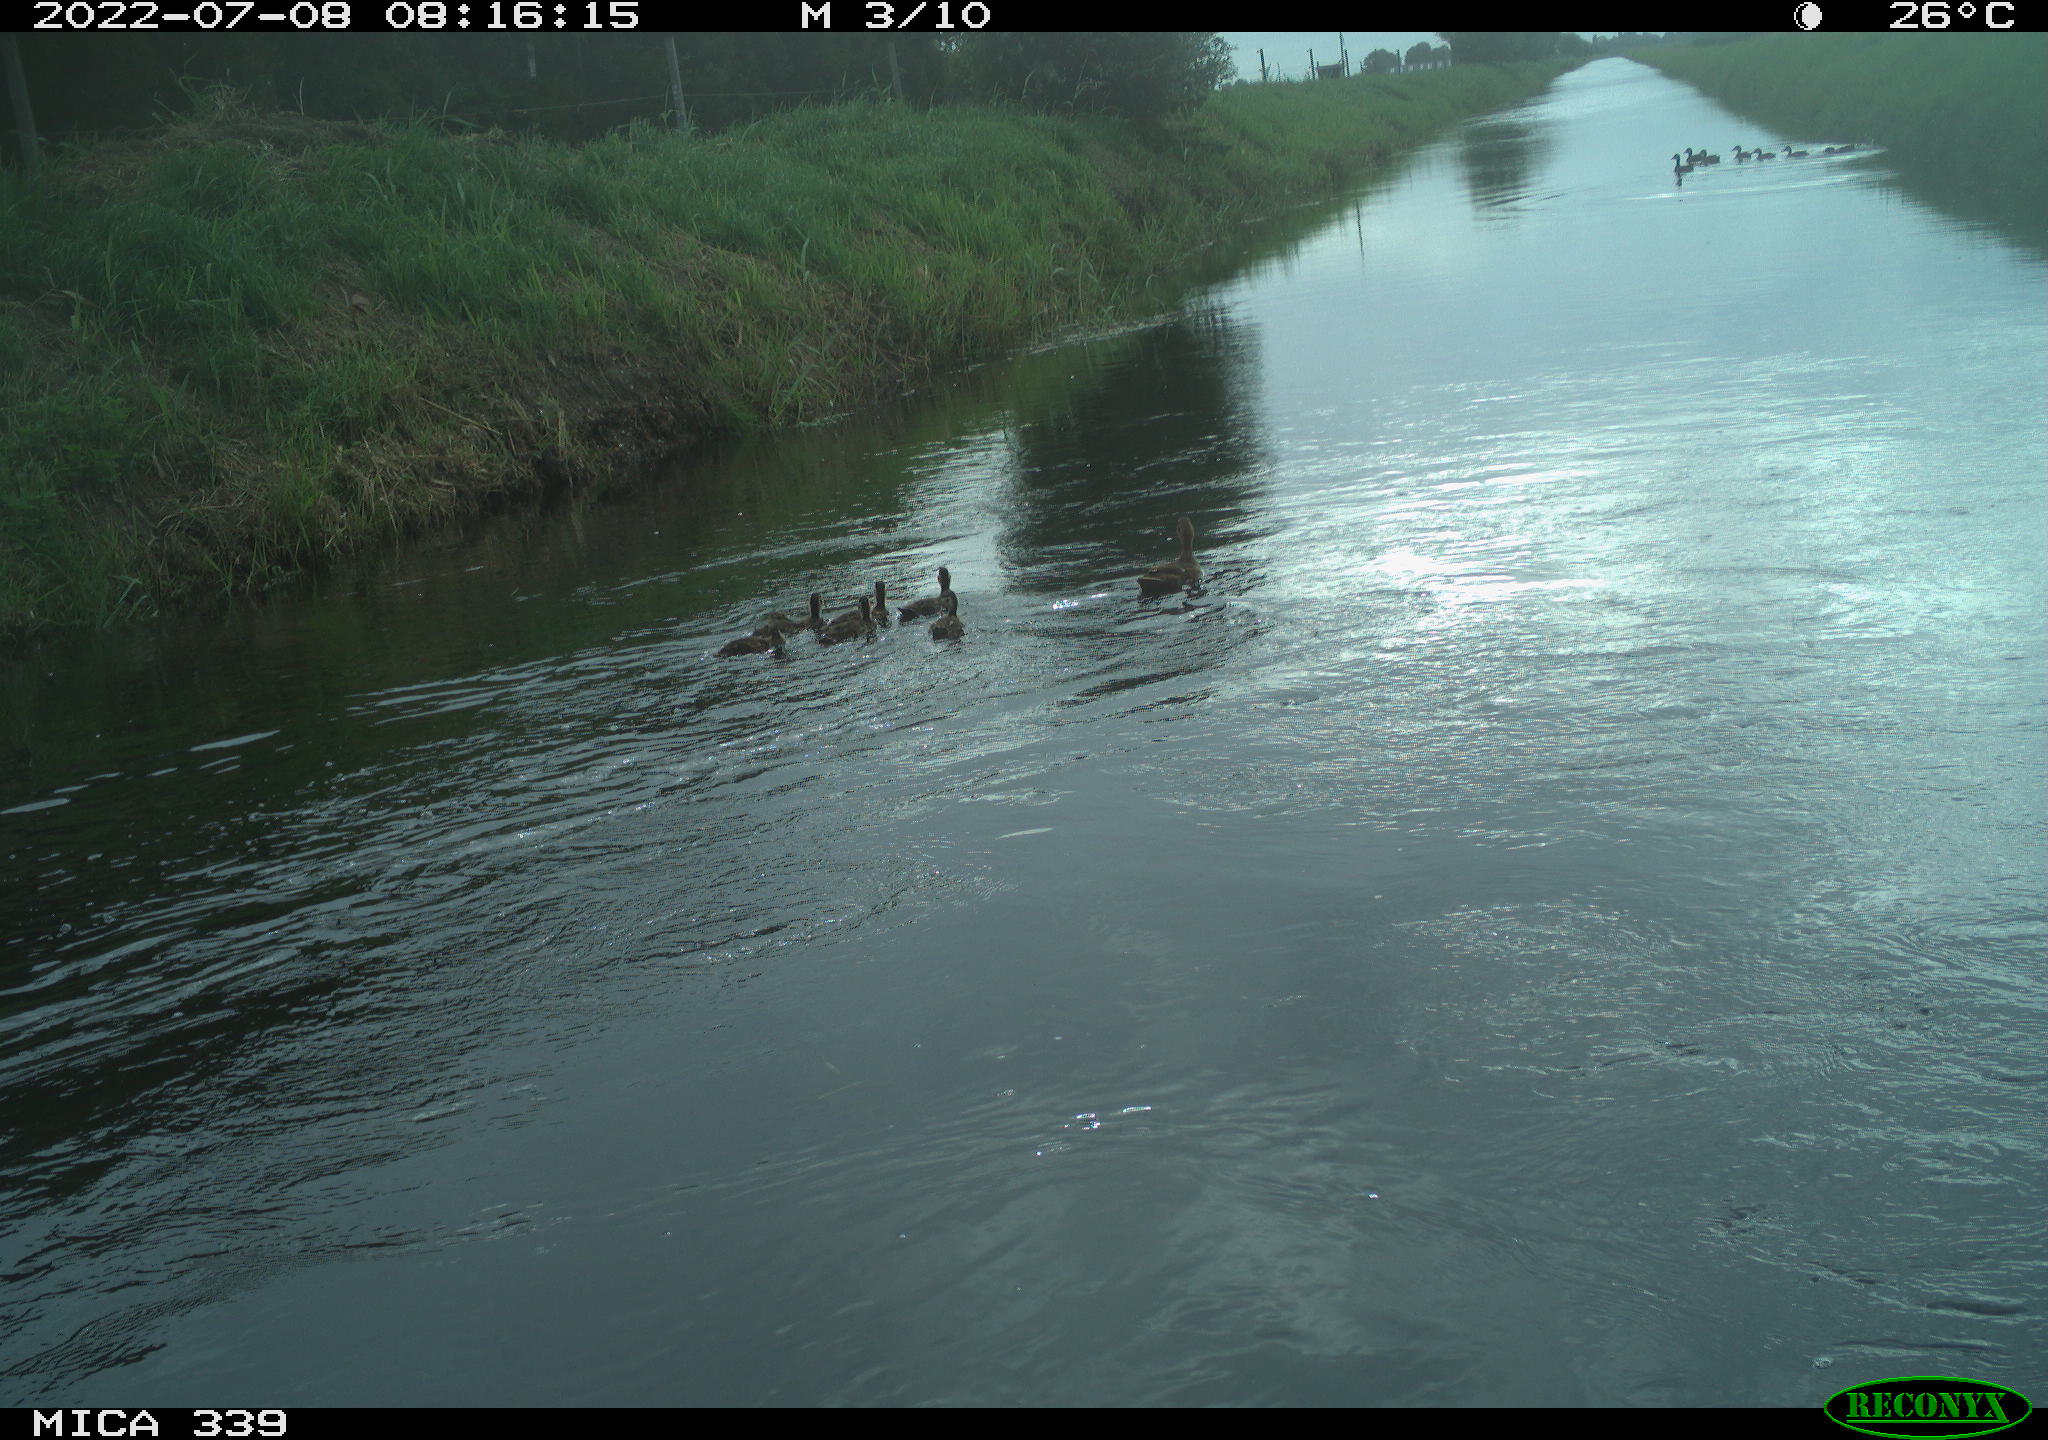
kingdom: Animalia
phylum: Chordata
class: Aves
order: Anseriformes
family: Anatidae
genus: Anas
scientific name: Anas platyrhynchos
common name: Mallard
